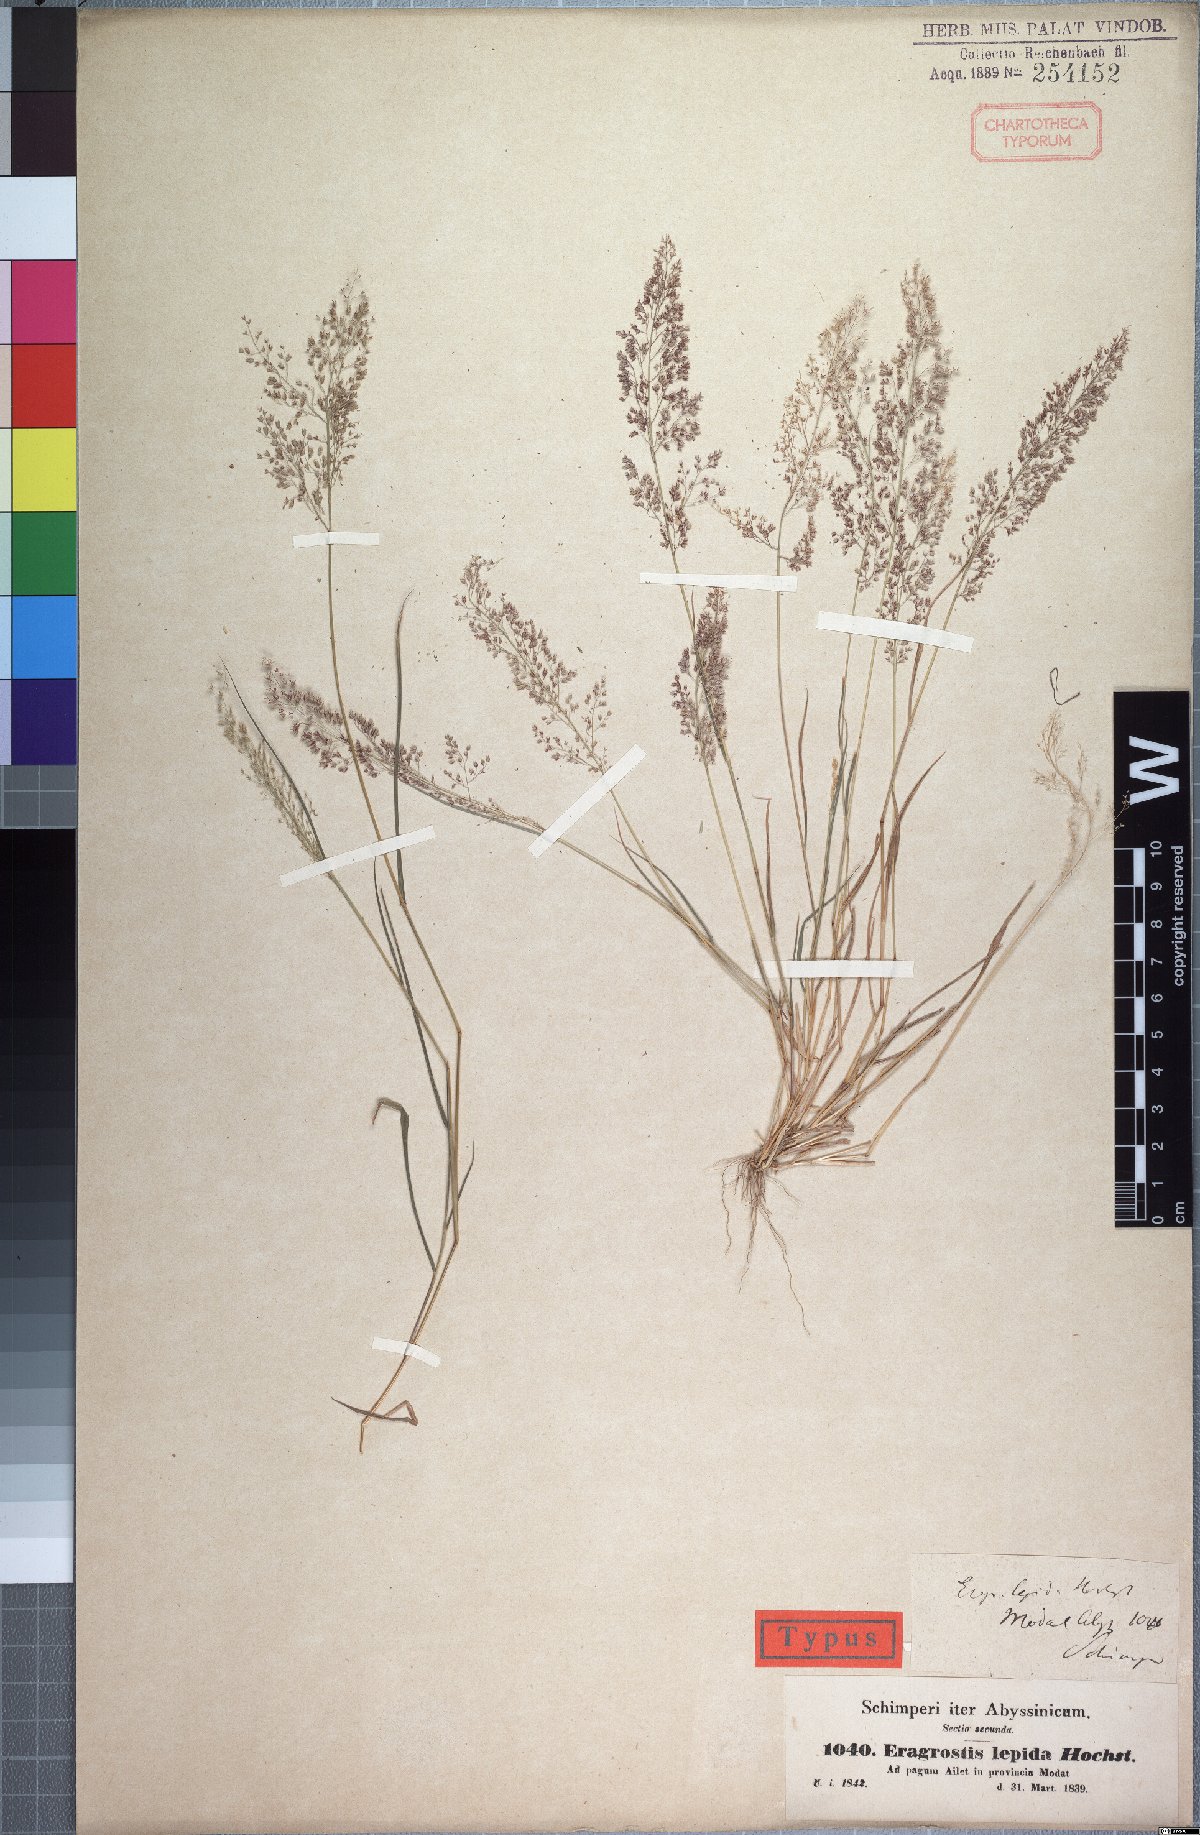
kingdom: Plantae
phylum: Tracheophyta
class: Liliopsida
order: Poales
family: Poaceae
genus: Eragrostis
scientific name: Eragrostis lepida
